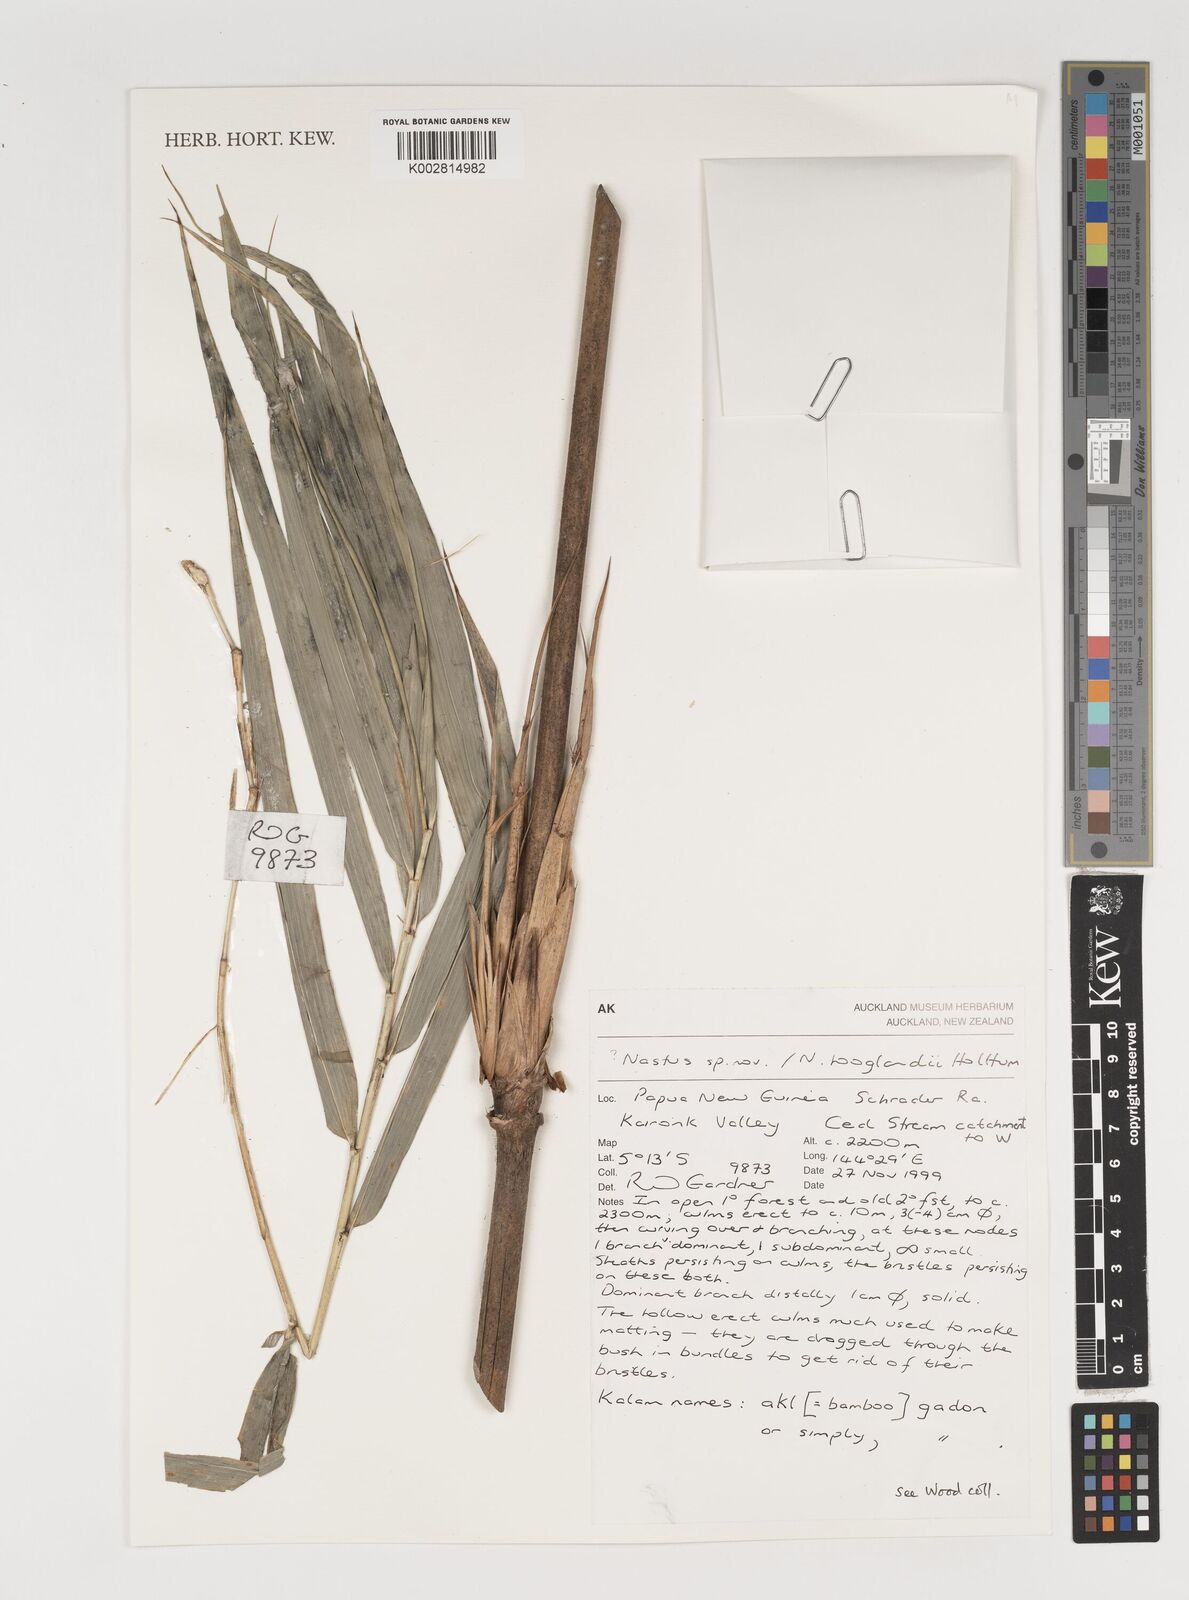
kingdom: Plantae
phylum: Tracheophyta
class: Liliopsida
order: Poales
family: Poaceae
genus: Greslania
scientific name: Greslania
